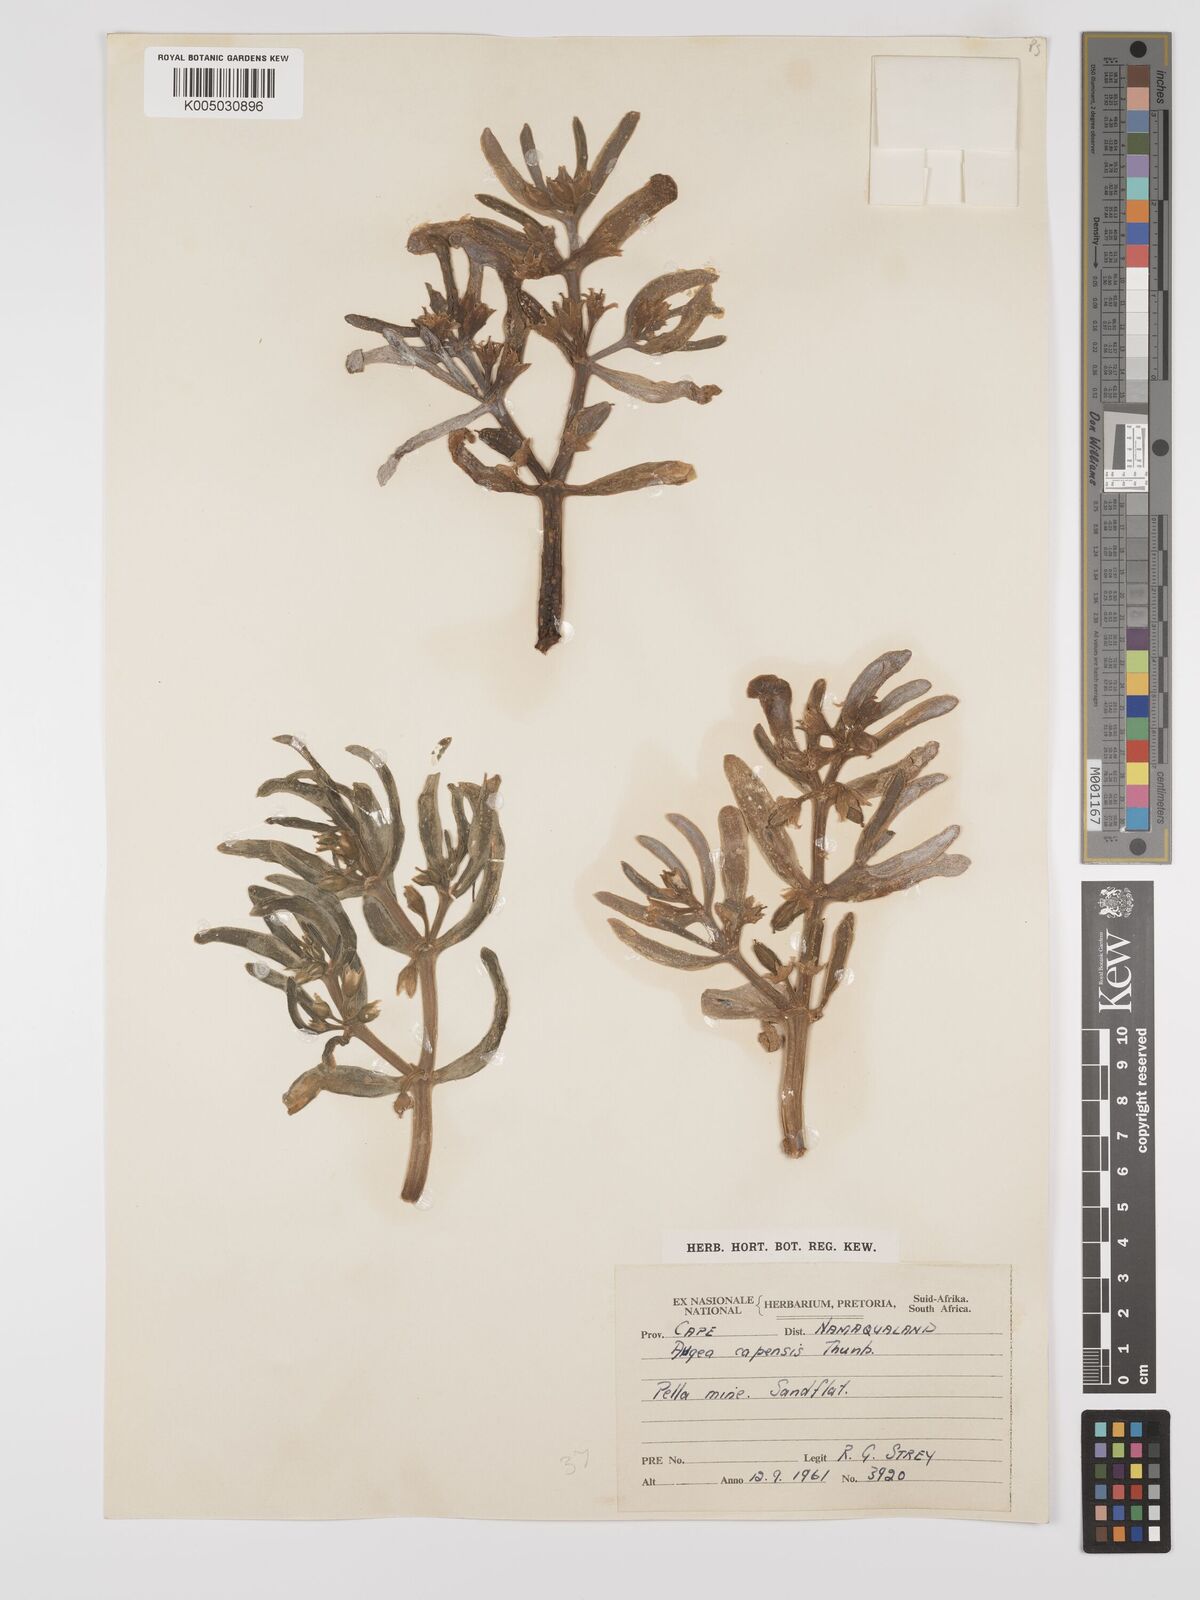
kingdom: Plantae
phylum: Tracheophyta
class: Magnoliopsida
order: Zygophyllales
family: Zygophyllaceae
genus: Augea
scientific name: Augea capensis
